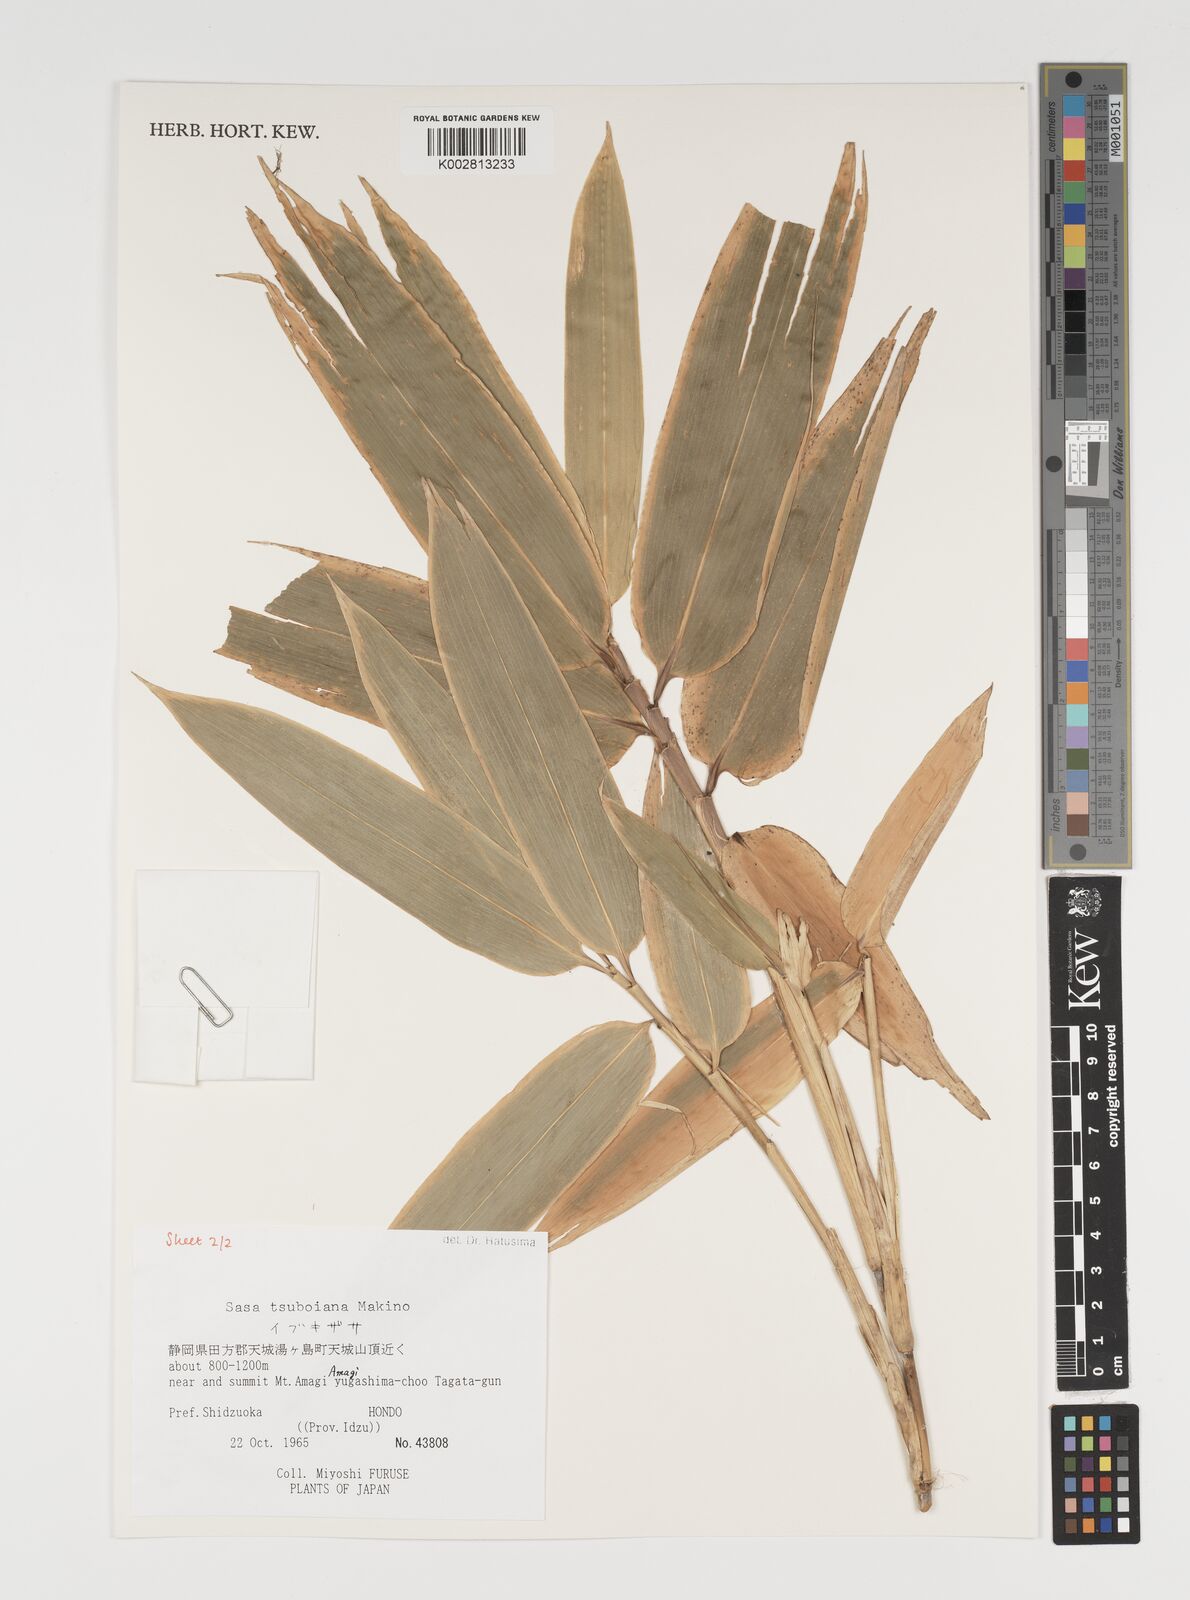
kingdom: Plantae
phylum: Tracheophyta
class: Liliopsida
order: Poales
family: Poaceae
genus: Sasa
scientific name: Sasa tsuboiana
